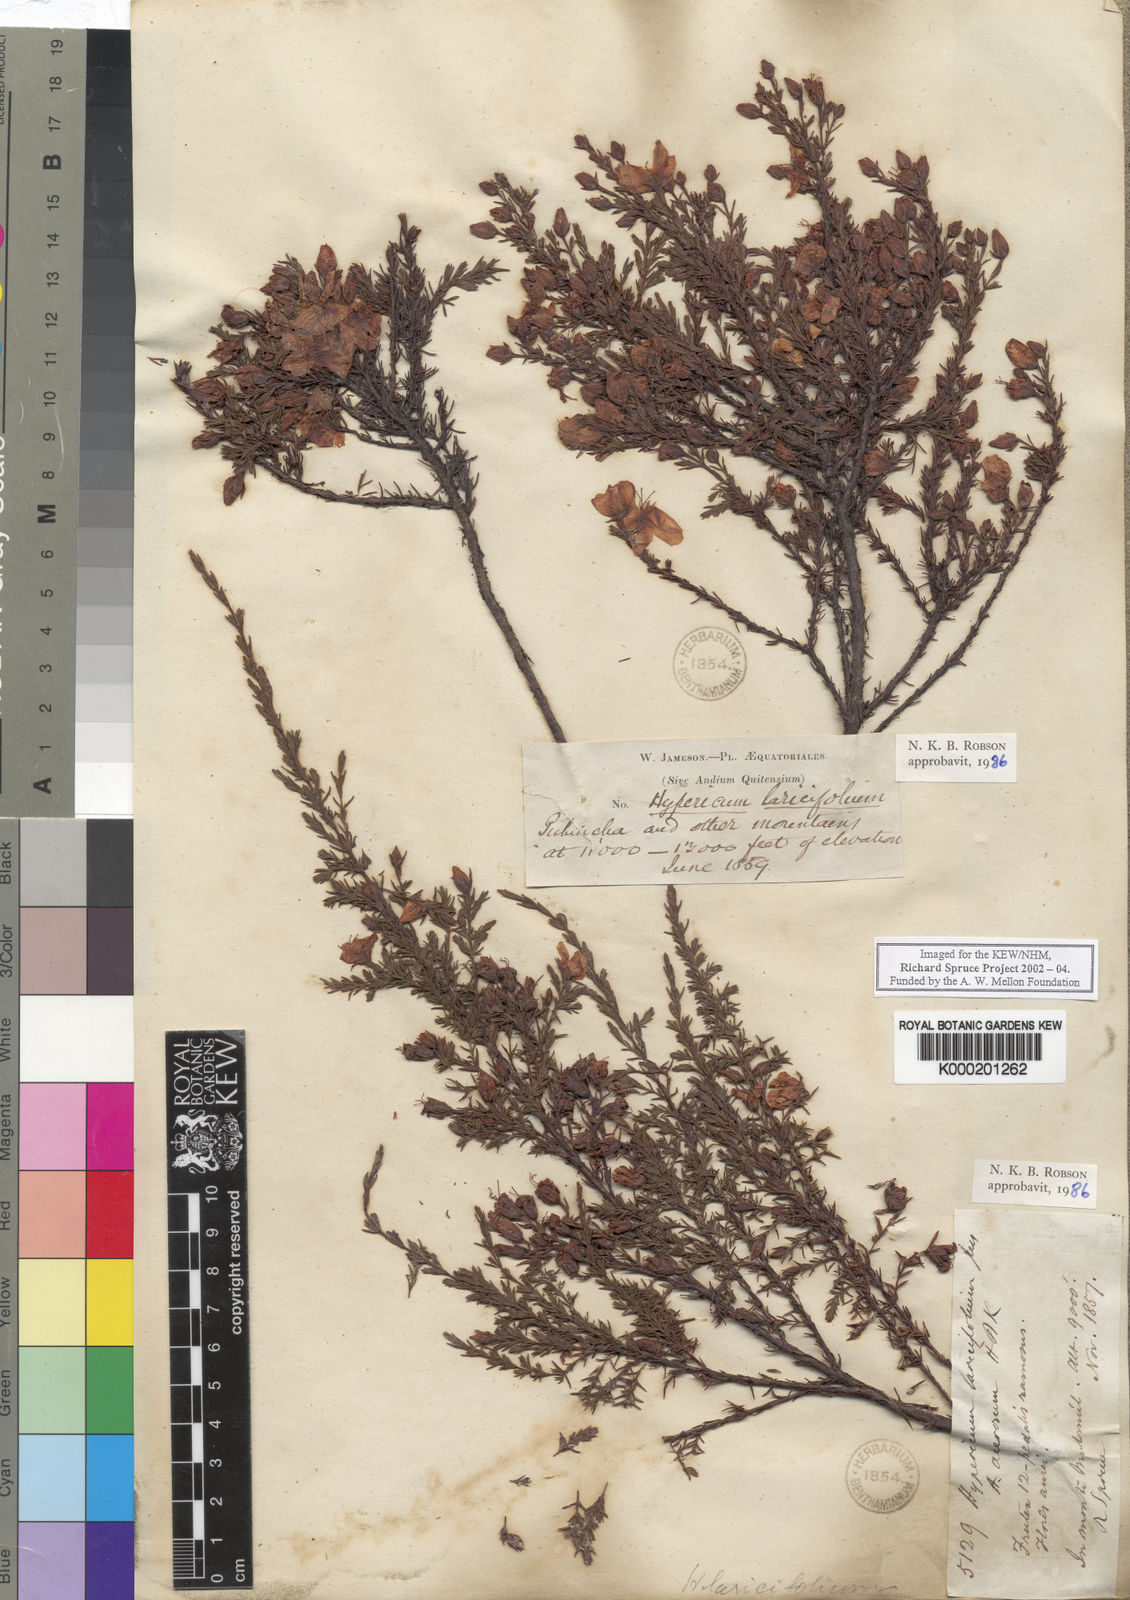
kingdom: Plantae
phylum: Tracheophyta
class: Magnoliopsida
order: Malpighiales
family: Hypericaceae
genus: Hypericum
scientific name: Hypericum lancifolium
